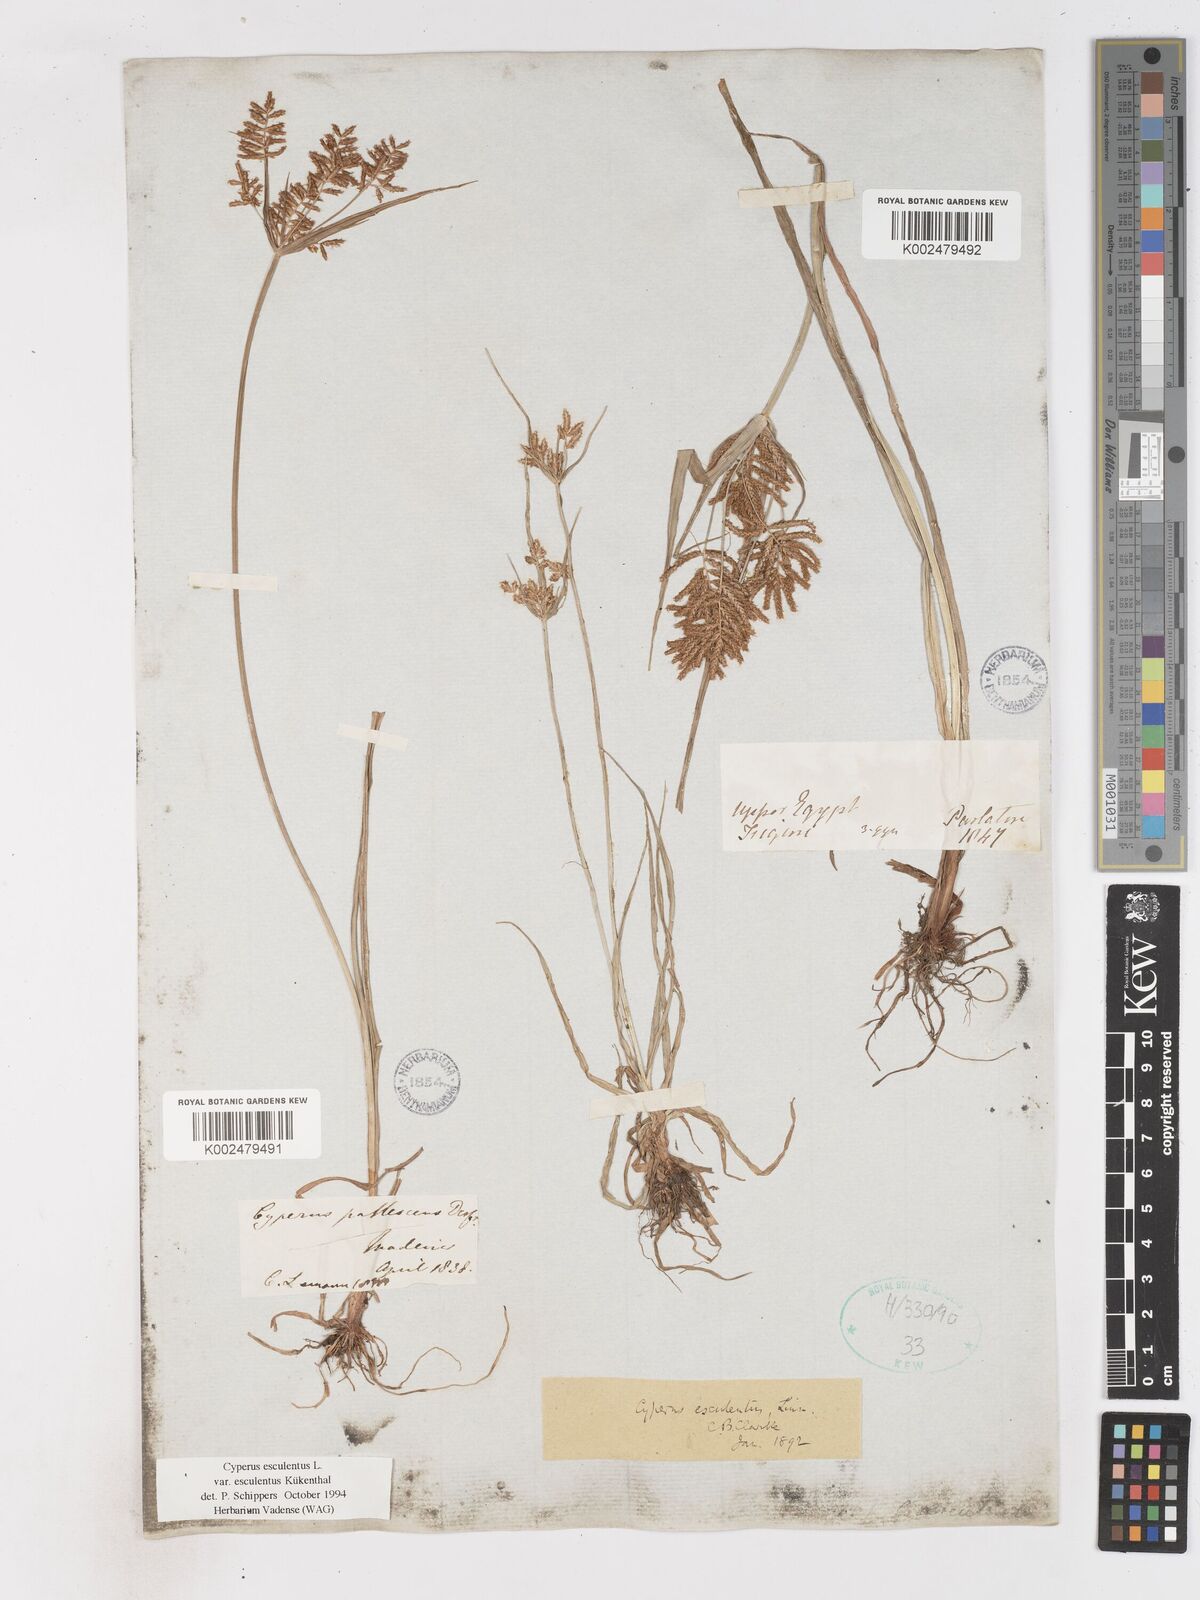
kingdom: Plantae
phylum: Tracheophyta
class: Liliopsida
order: Poales
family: Cyperaceae
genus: Cyperus
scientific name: Cyperus esculentus
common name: Yellow nutsedge
